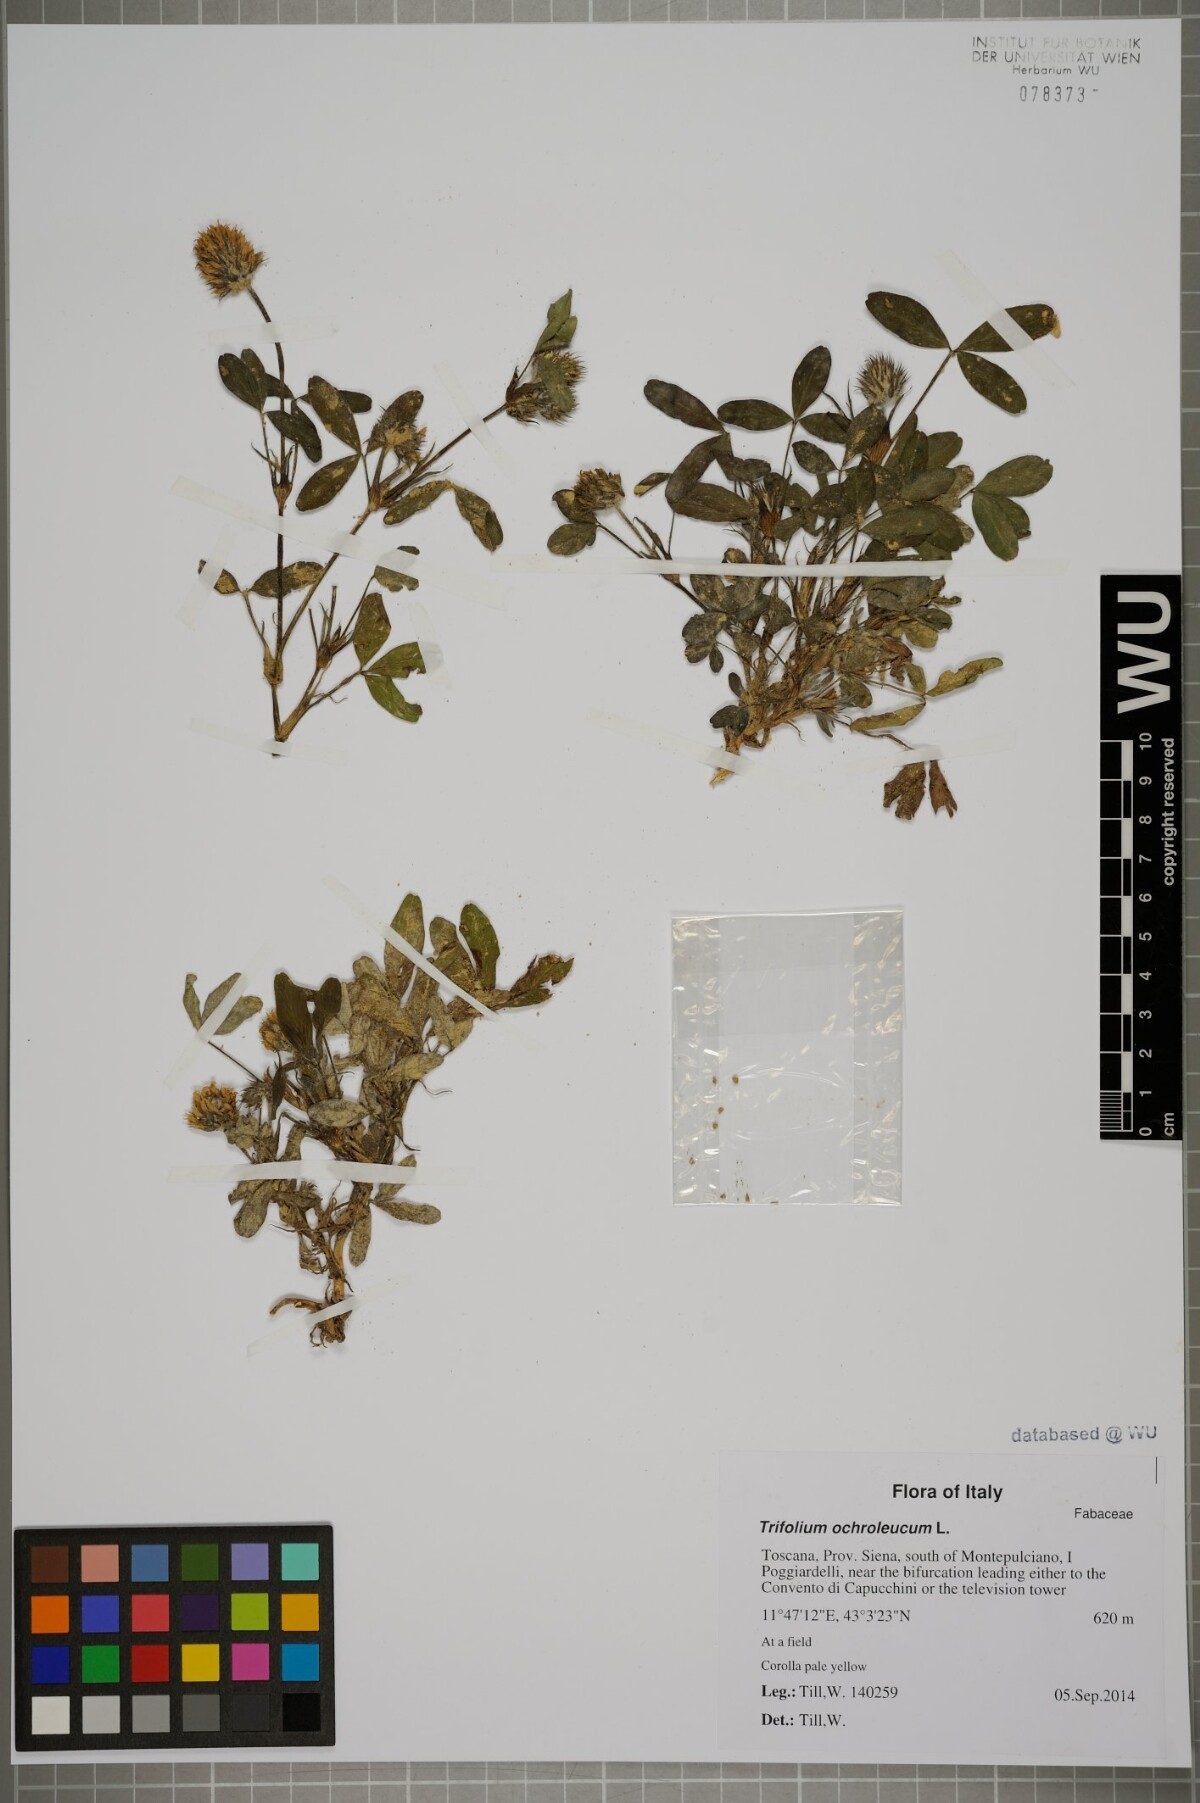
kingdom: Plantae
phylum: Tracheophyta
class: Magnoliopsida
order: Fabales
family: Fabaceae
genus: Trifolium
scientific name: Trifolium ochroleucon
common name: Sulphur clover
